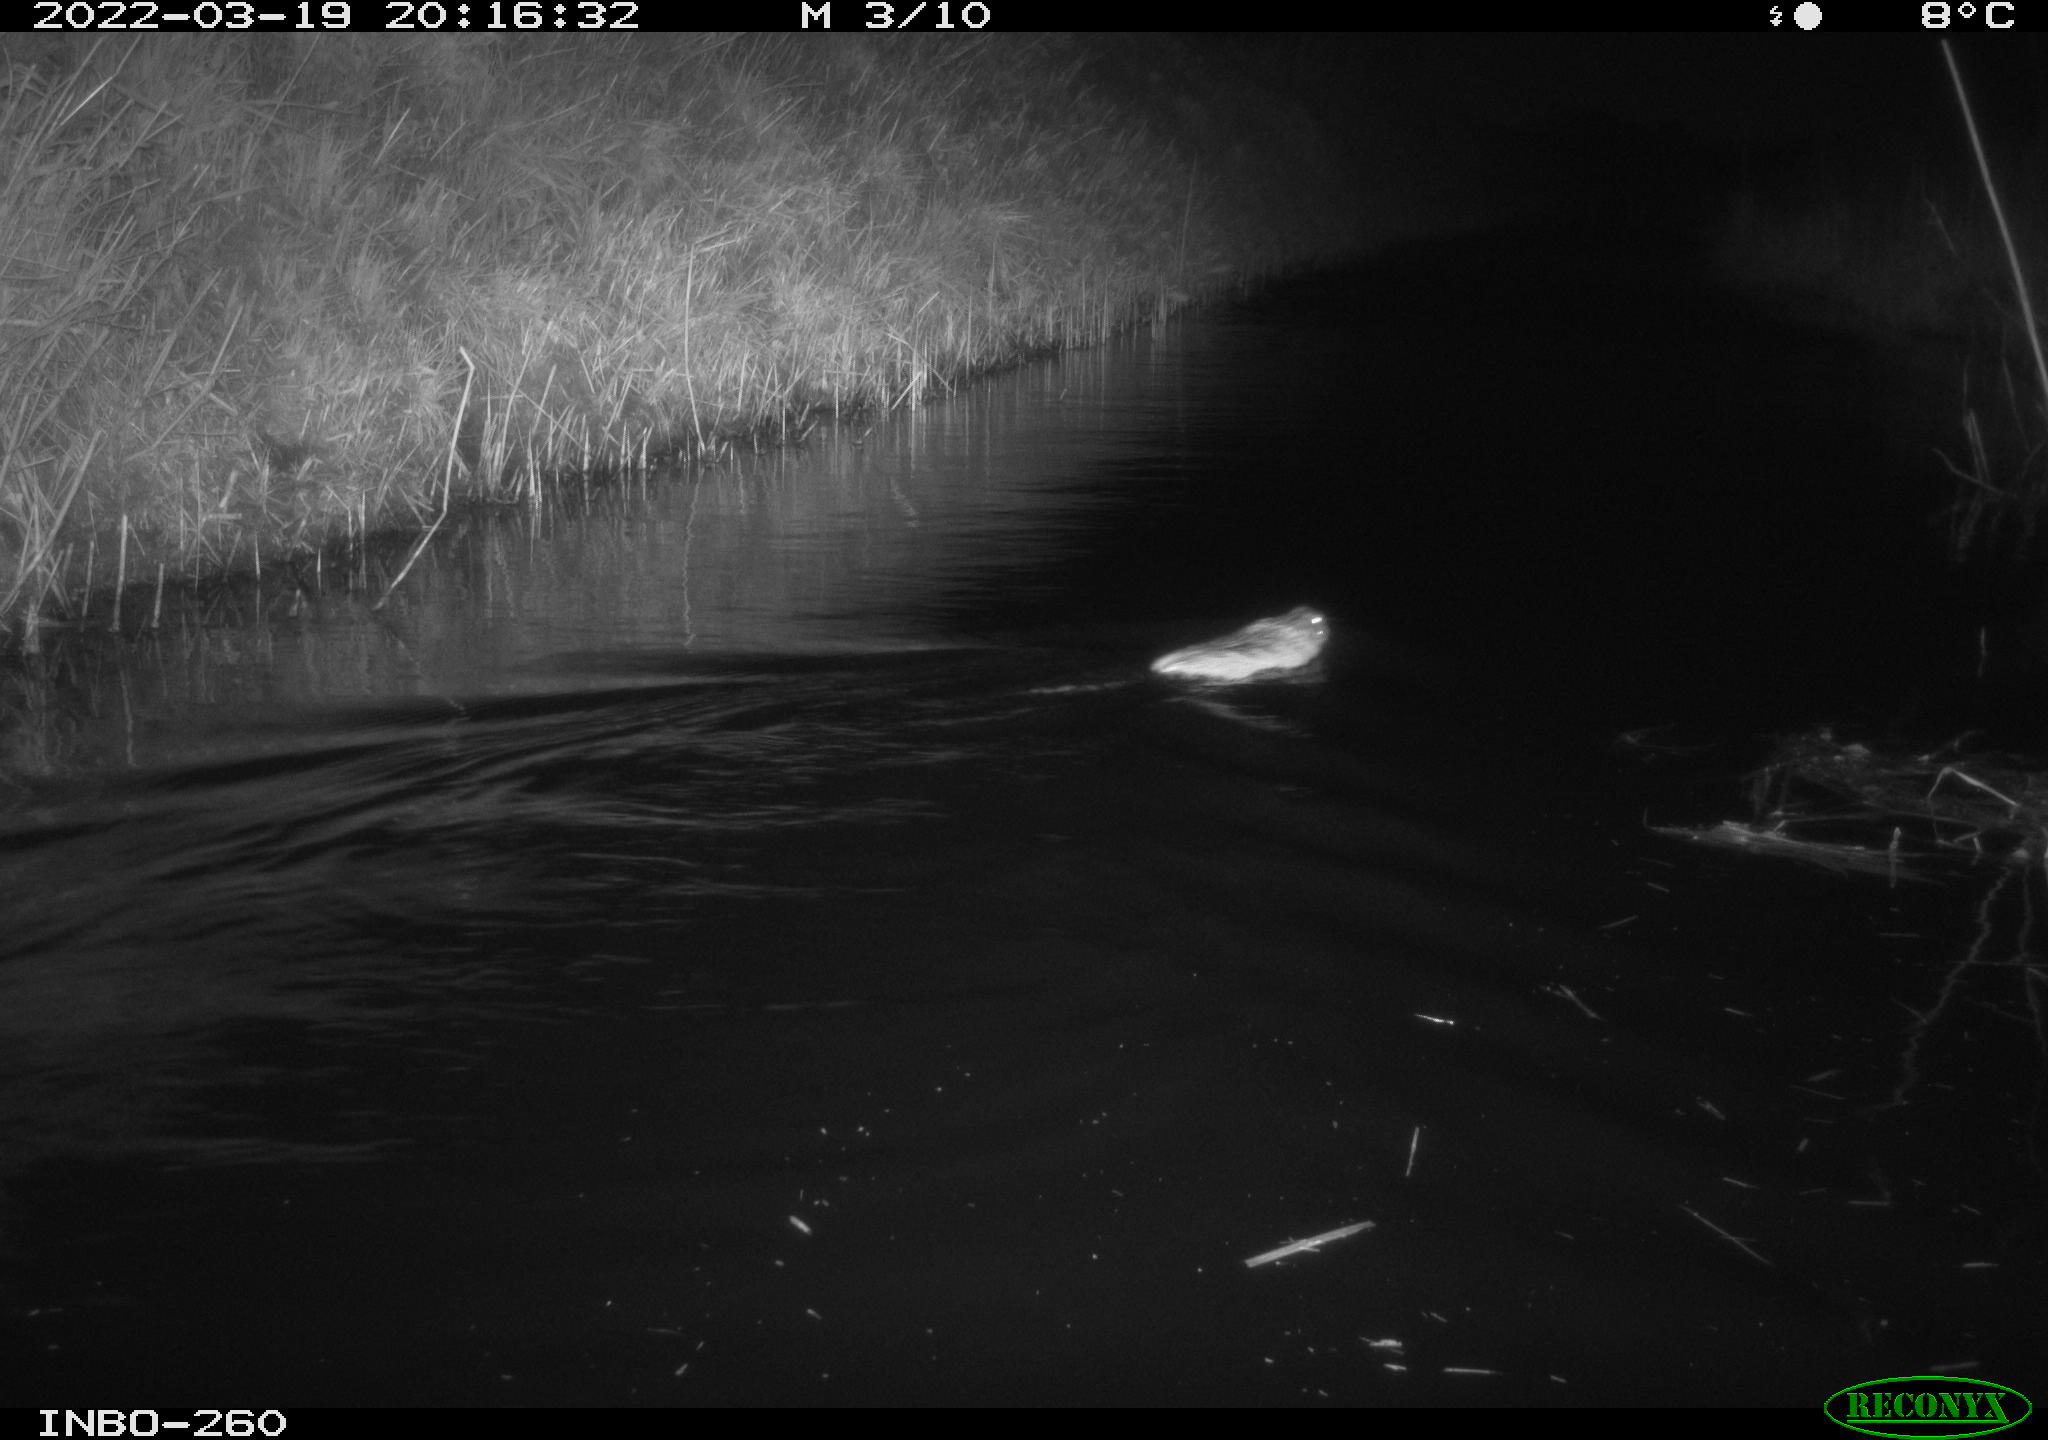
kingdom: Animalia
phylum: Chordata
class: Mammalia
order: Rodentia
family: Cricetidae
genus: Ondatra
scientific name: Ondatra zibethicus
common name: Muskrat
